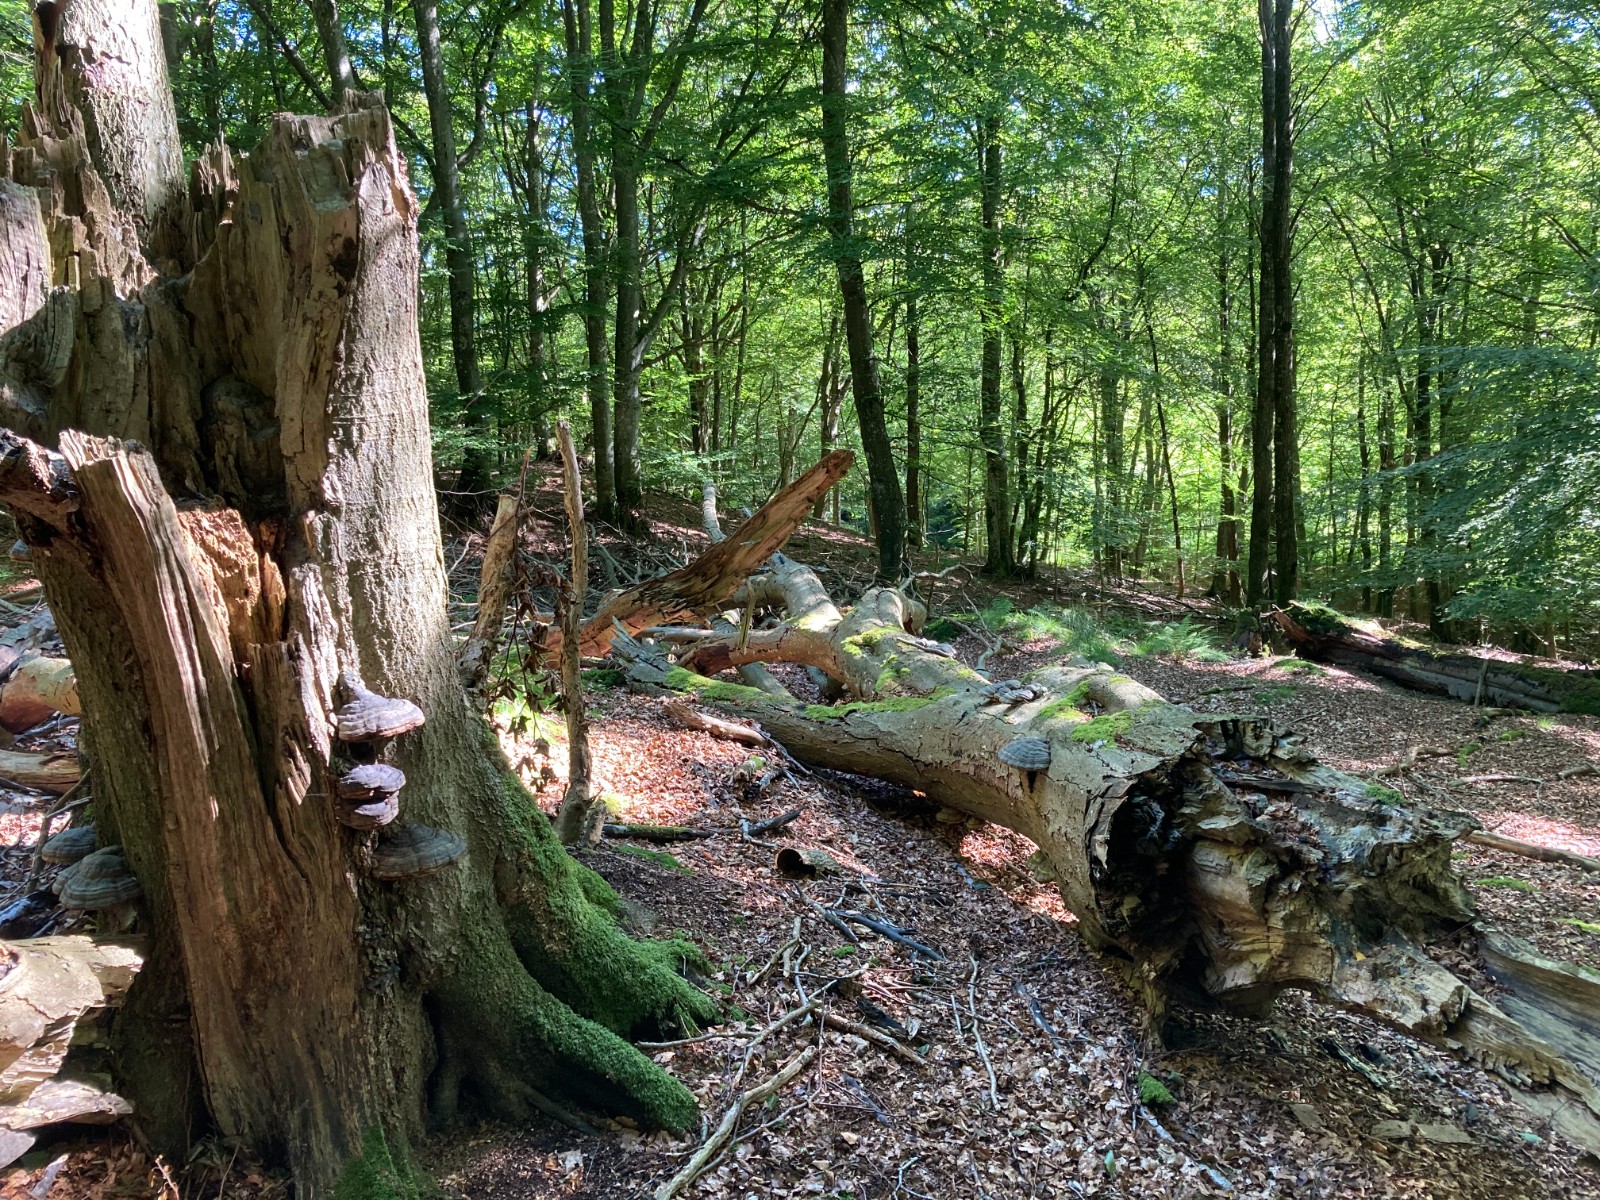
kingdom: Fungi
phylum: Basidiomycota
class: Agaricomycetes
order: Polyporales
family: Polyporaceae
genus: Fomes
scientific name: Fomes fomentarius
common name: tøndersvamp
